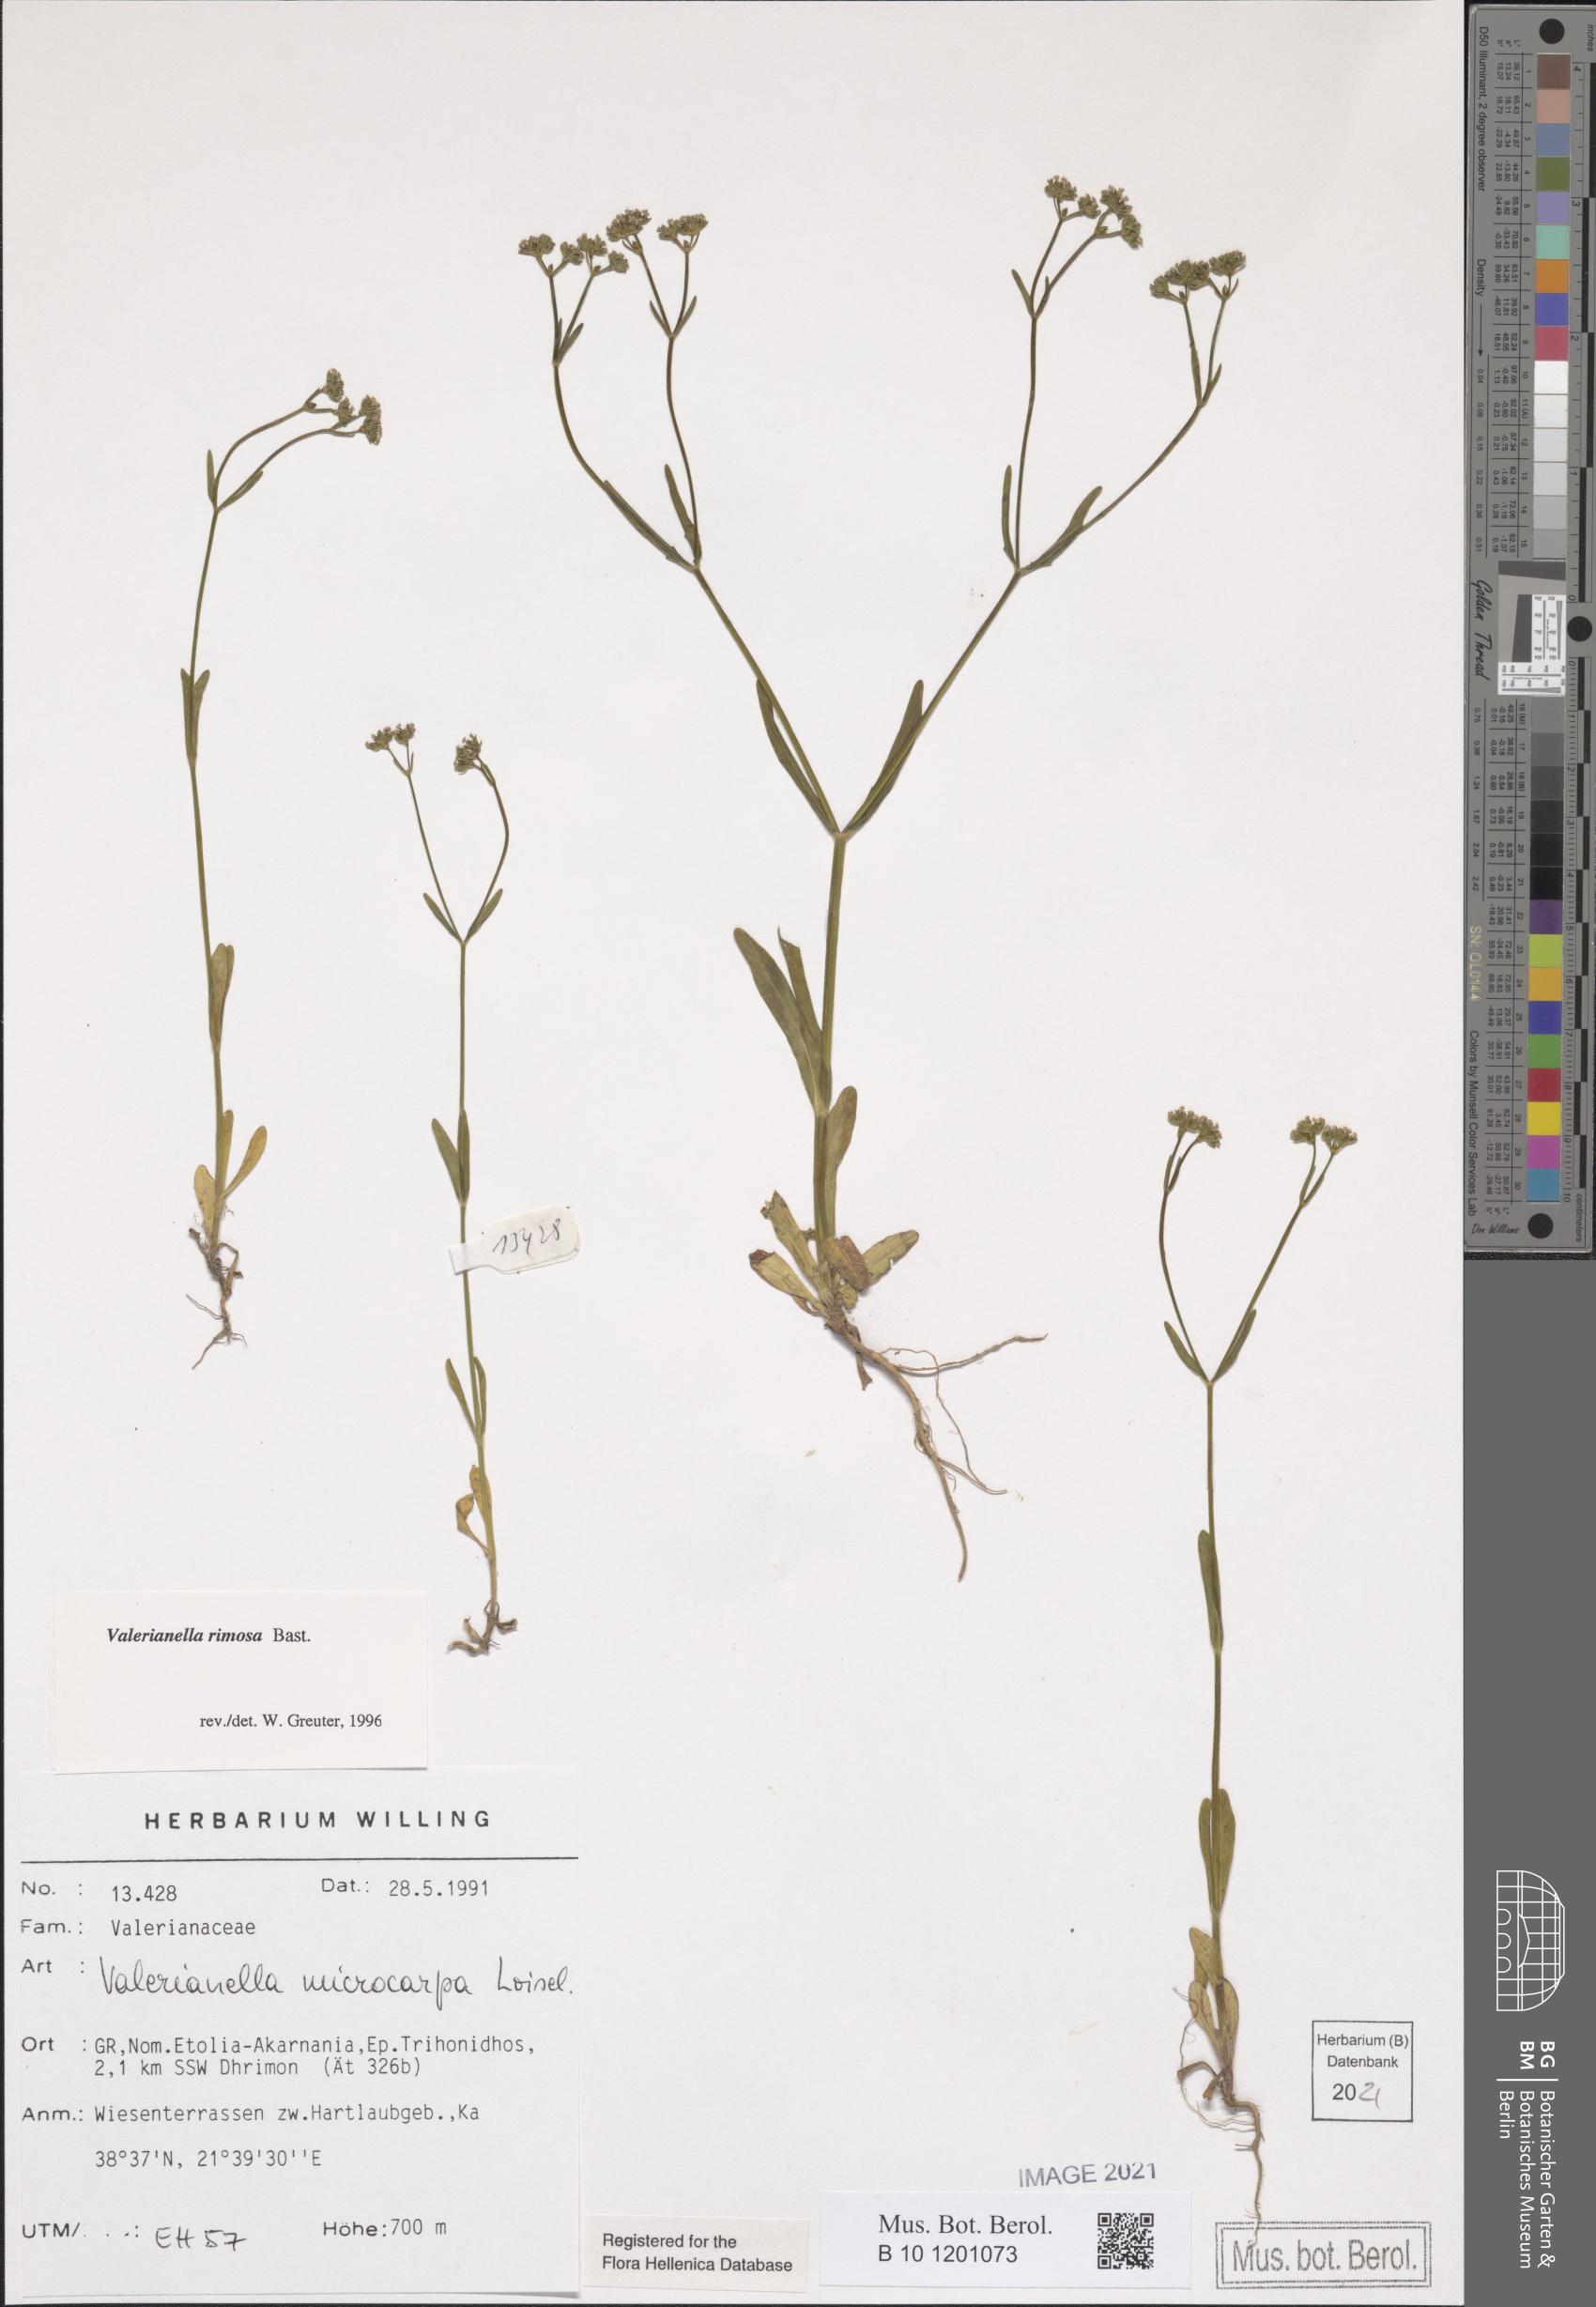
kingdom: Plantae
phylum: Tracheophyta
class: Magnoliopsida
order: Dipsacales
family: Caprifoliaceae
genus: Valerianella
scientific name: Valerianella rimosa
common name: Broad-fruited cornsalad
